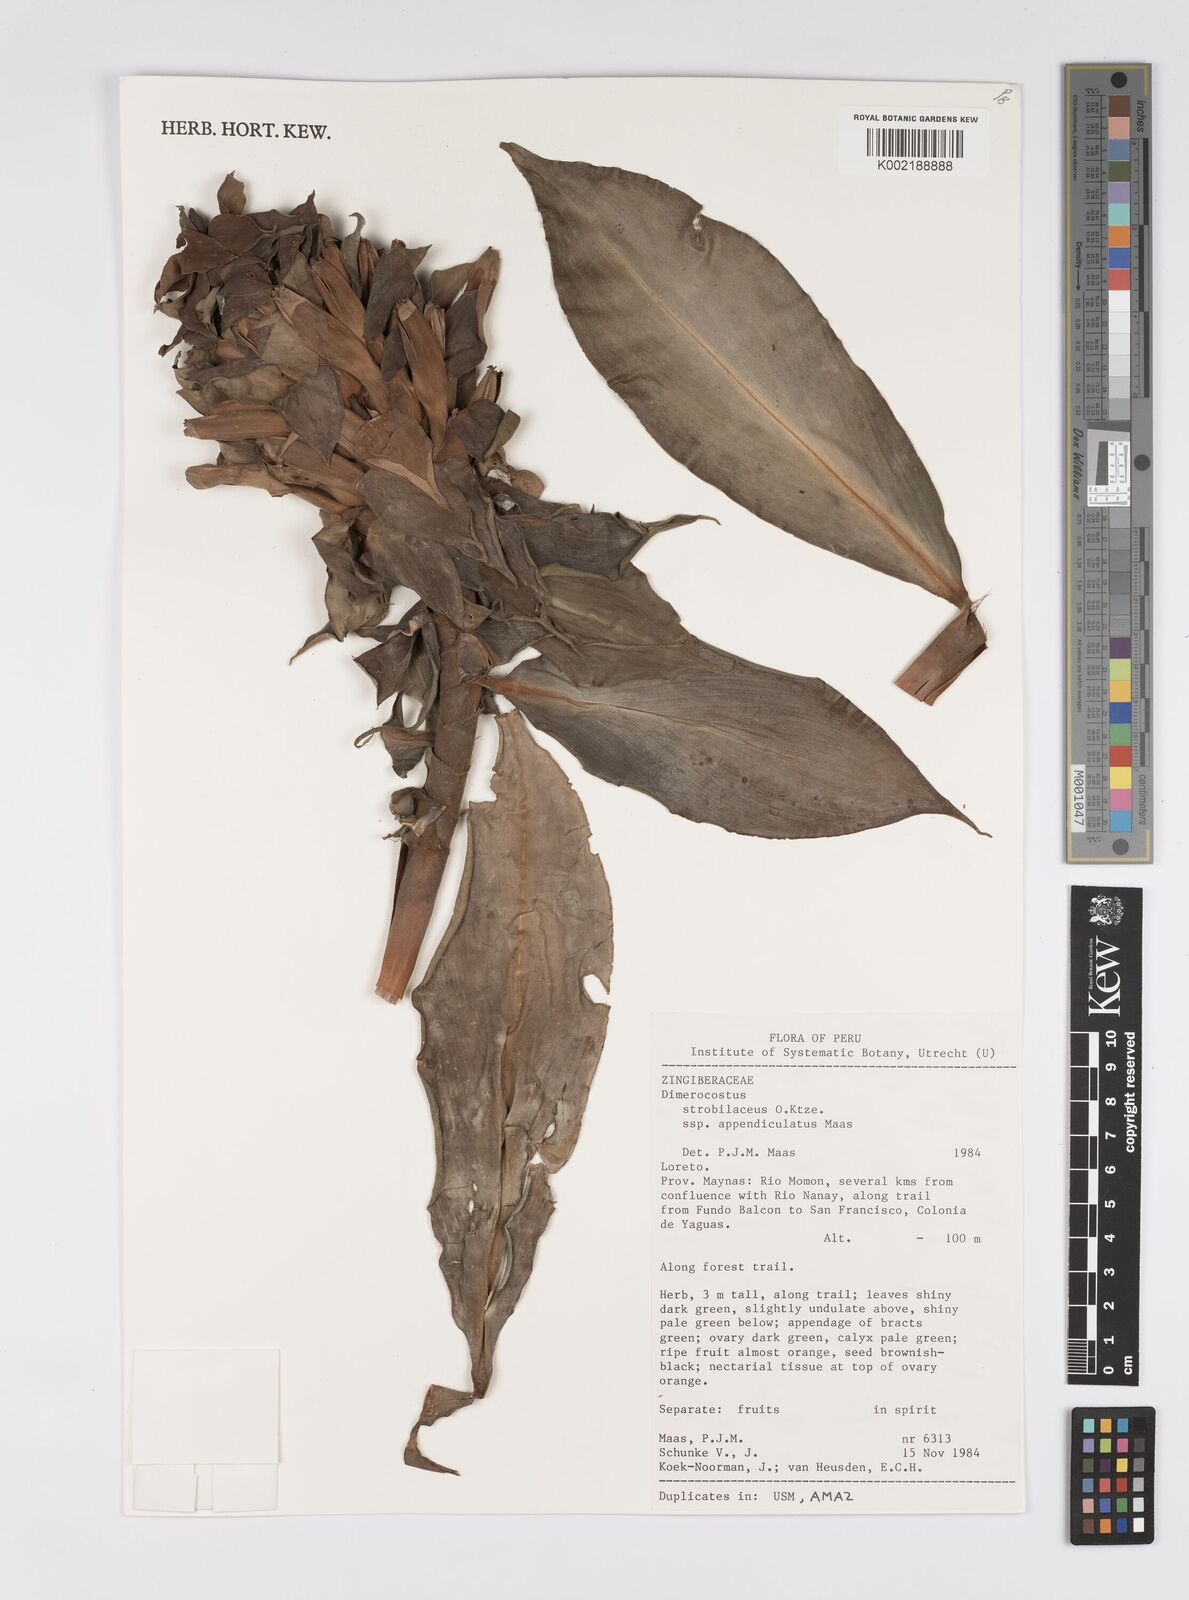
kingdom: Plantae
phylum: Tracheophyta
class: Liliopsida
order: Zingiberales
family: Costaceae
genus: Dimerocostus
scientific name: Dimerocostus strobilaceus
